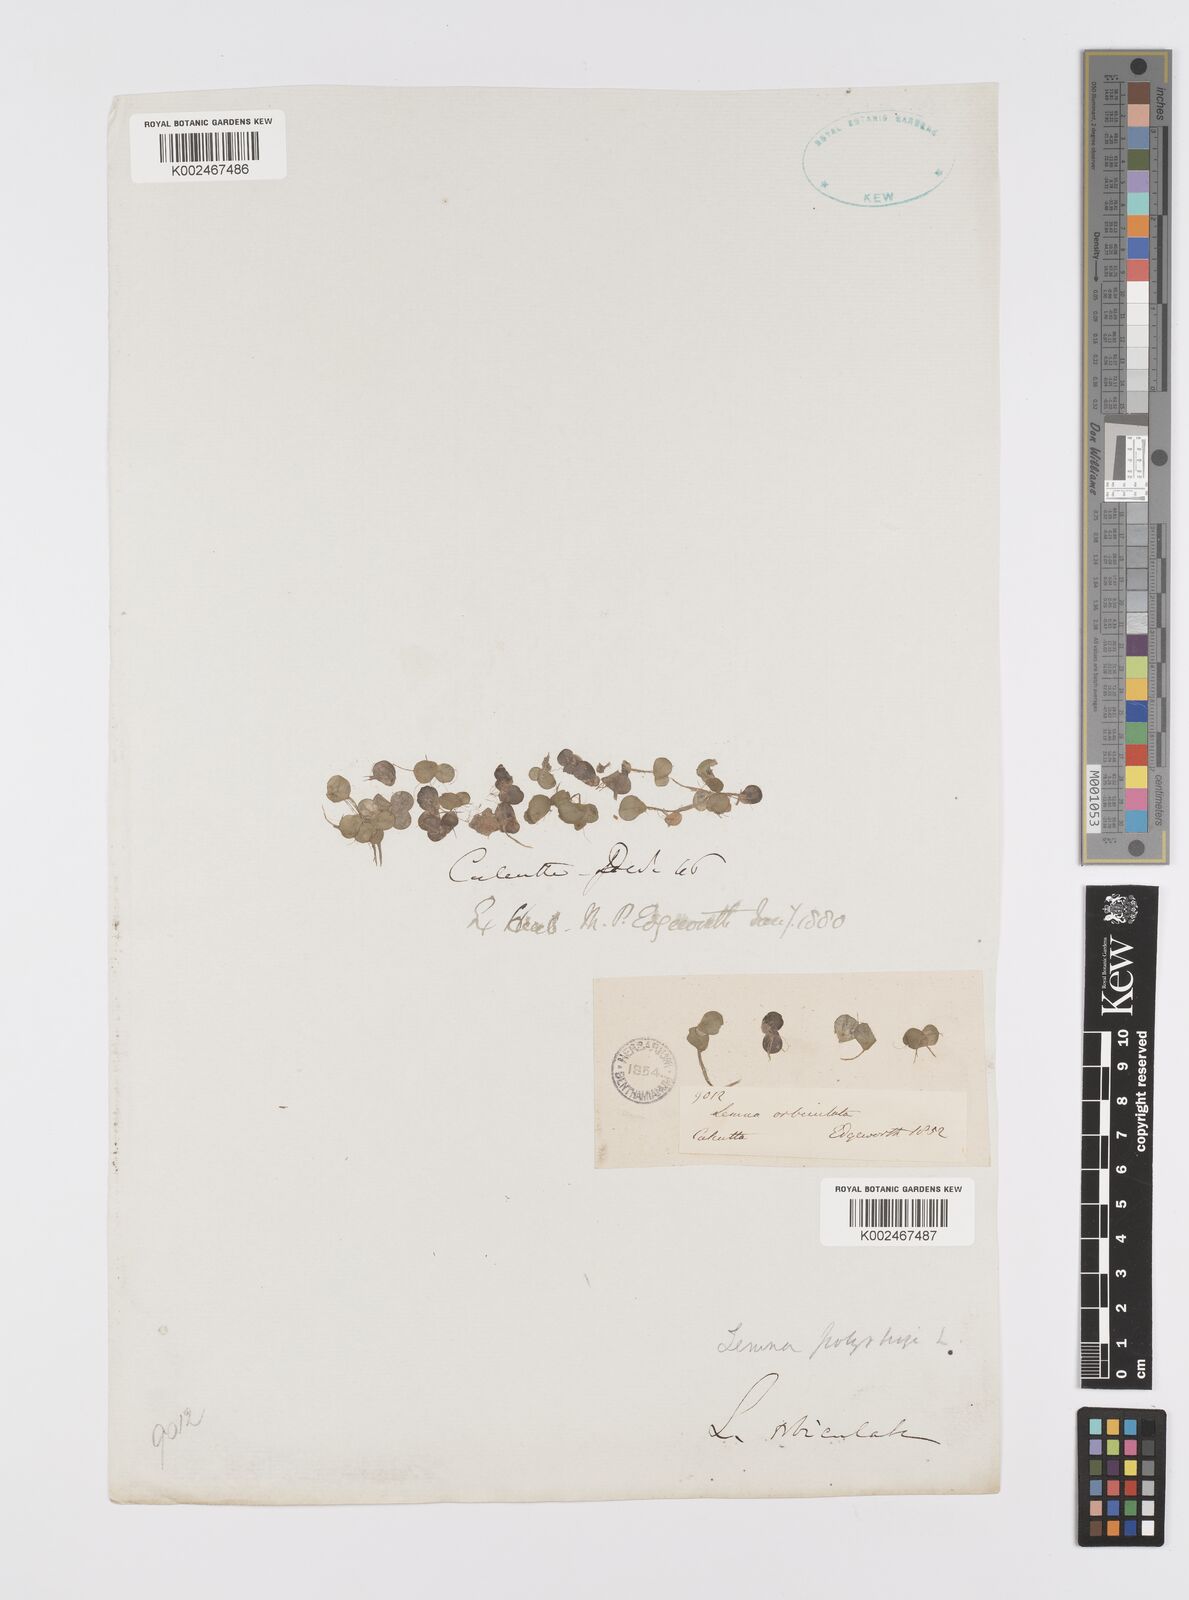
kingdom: Plantae
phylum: Tracheophyta
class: Liliopsida
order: Alismatales
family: Araceae
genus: Spirodela
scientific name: Spirodela polyrhiza
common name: Great duckweed
